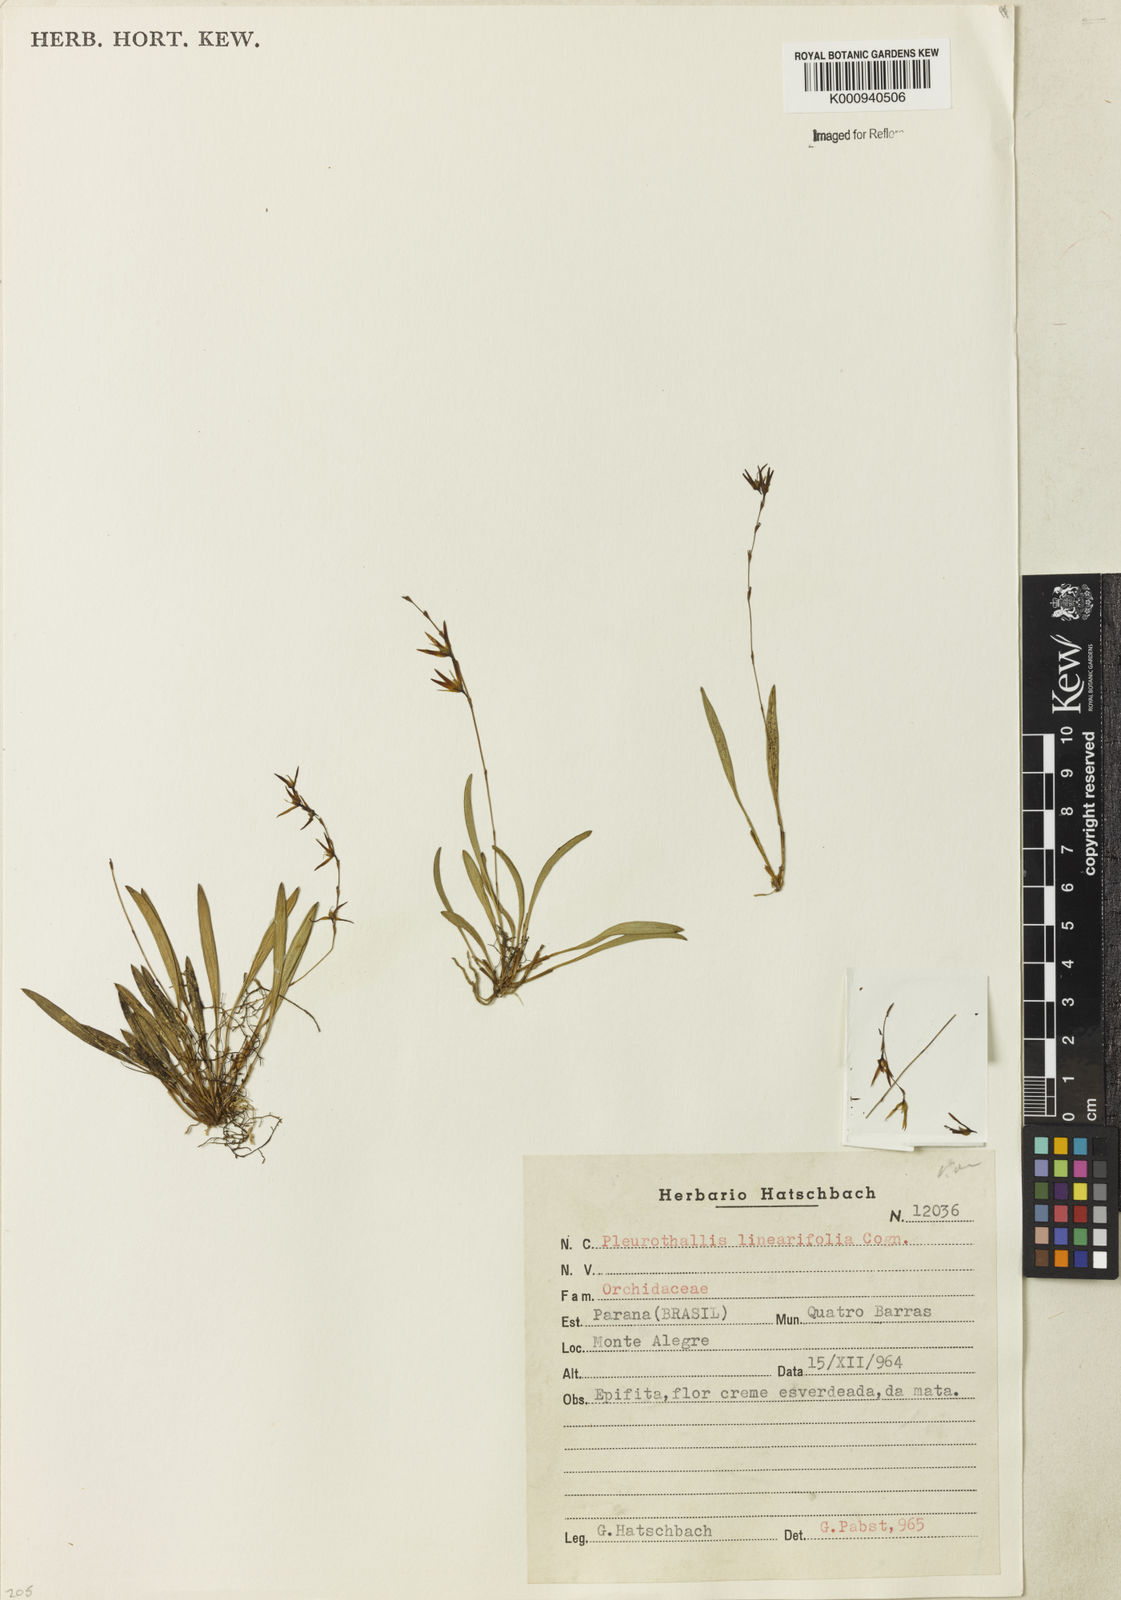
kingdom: Plantae
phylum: Tracheophyta
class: Liliopsida
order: Asparagales
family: Orchidaceae
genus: Anathallis
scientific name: Anathallis linearifolia
